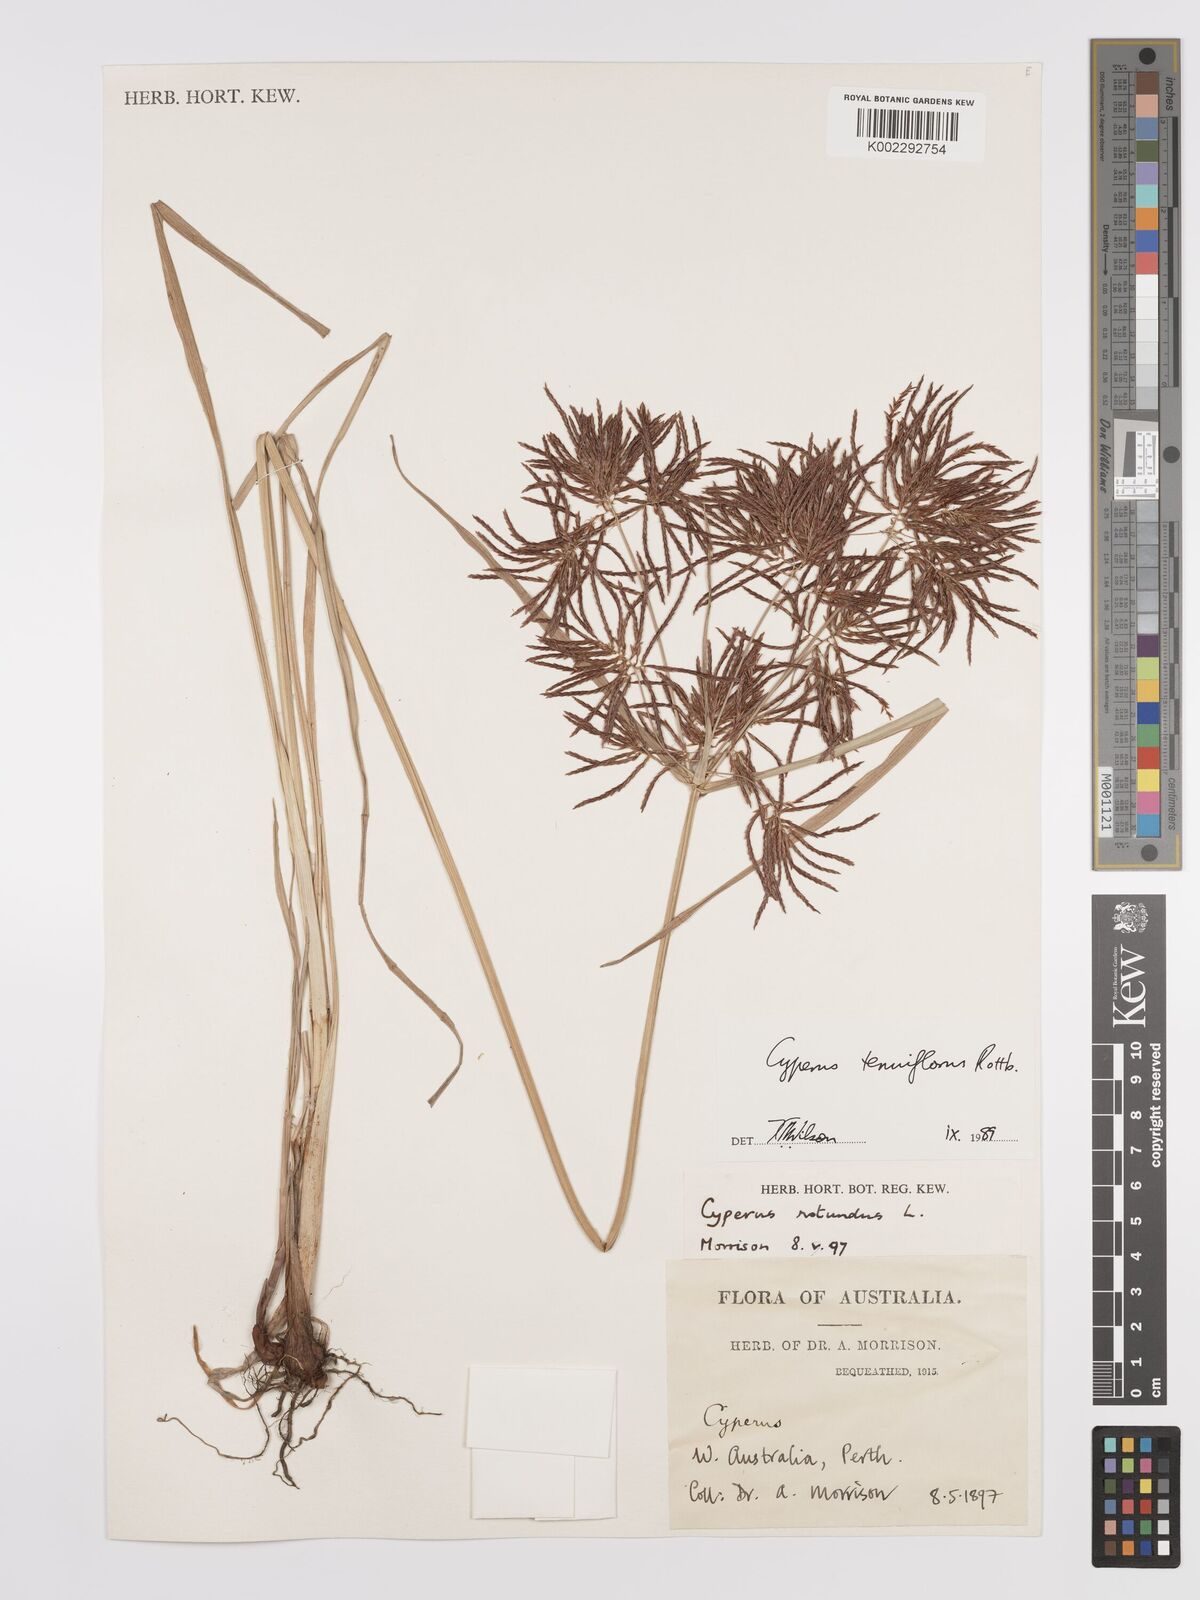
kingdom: Plantae
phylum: Tracheophyta
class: Liliopsida
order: Poales
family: Cyperaceae
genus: Cyperus
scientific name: Cyperus longus
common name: Galingale
